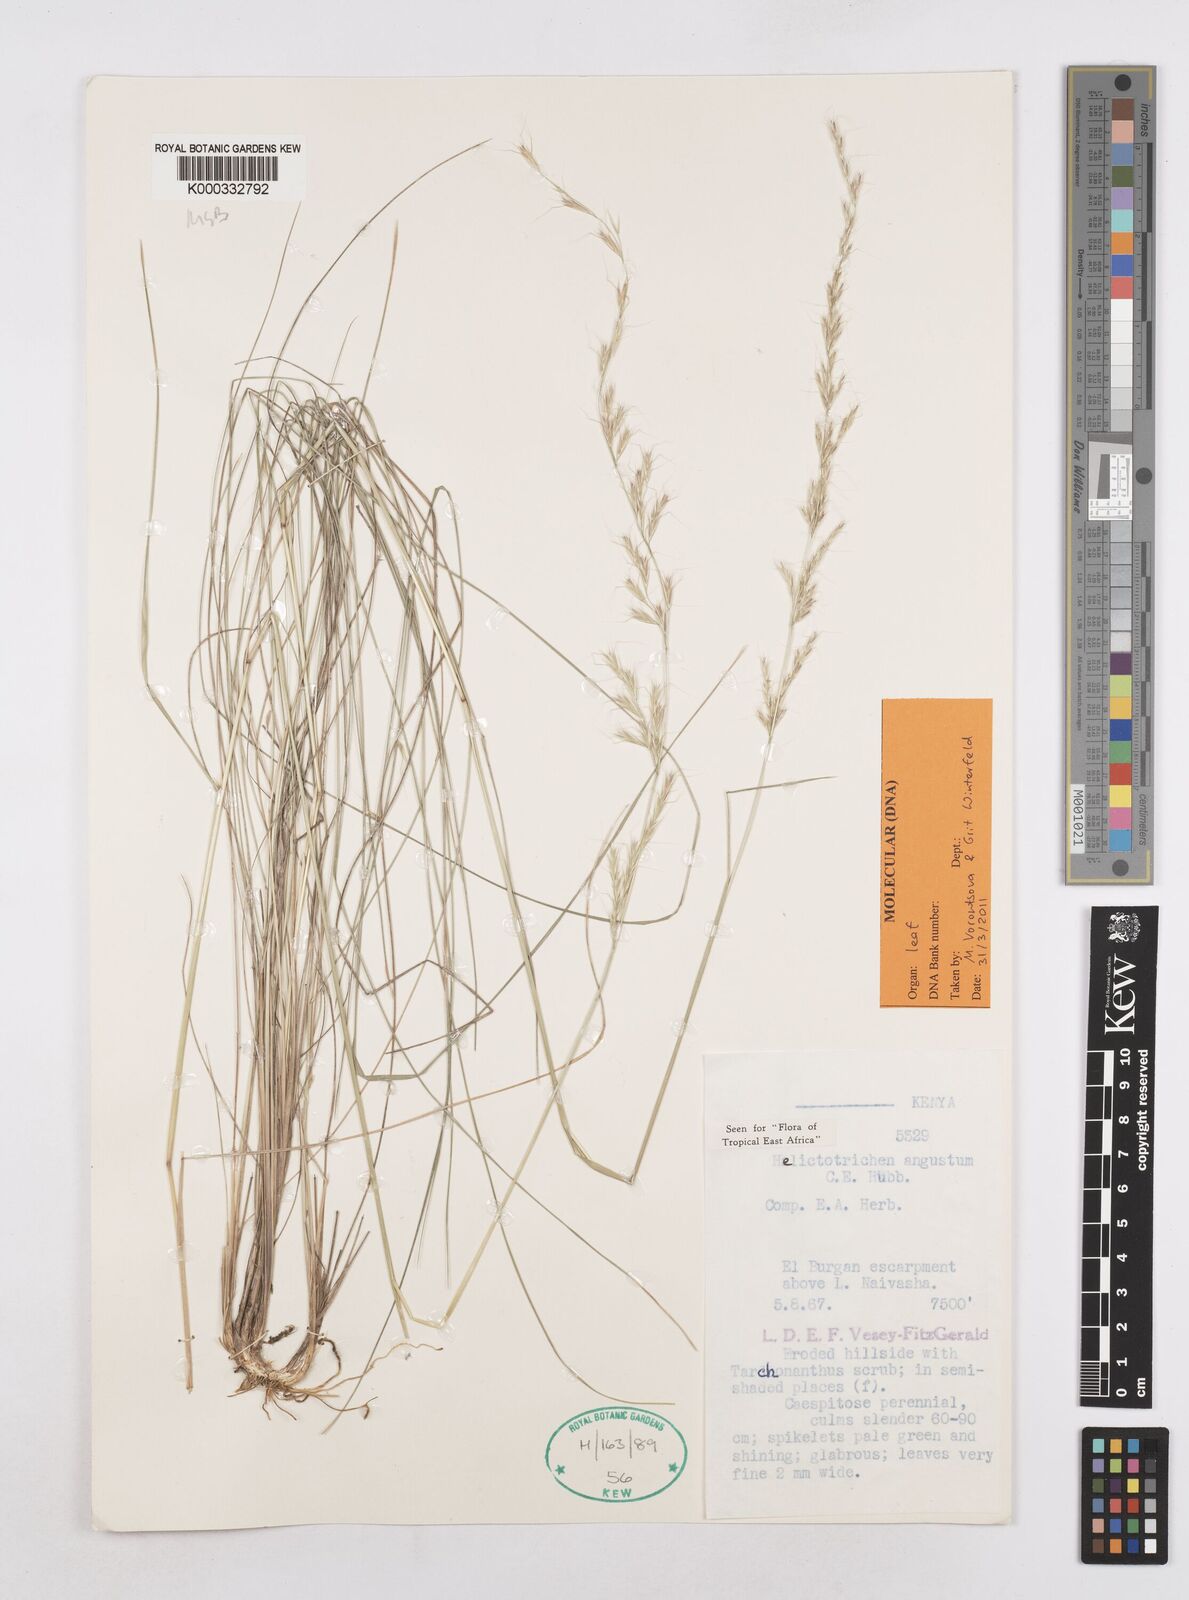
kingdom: Plantae
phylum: Tracheophyta
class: Liliopsida
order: Poales
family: Poaceae
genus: Trisetopsis
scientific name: Trisetopsis angusta
